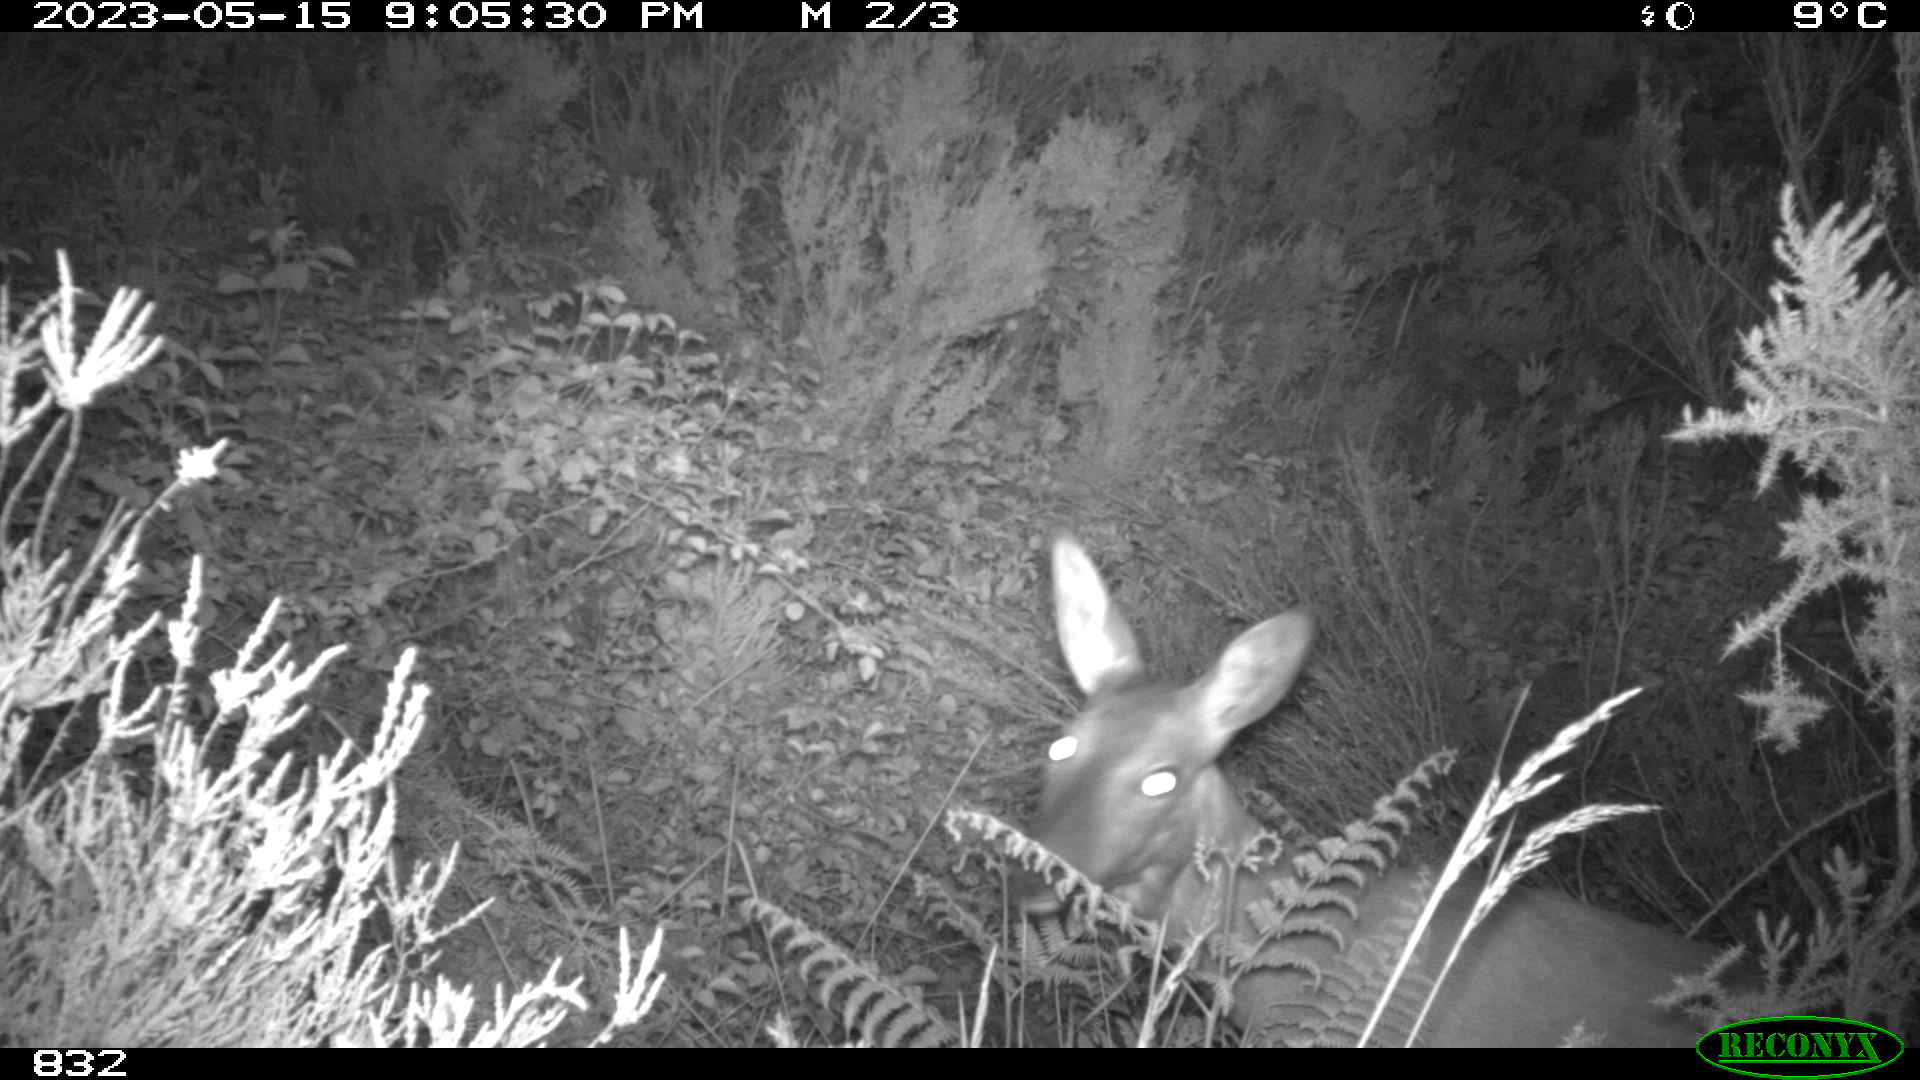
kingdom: Animalia
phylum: Chordata
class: Mammalia
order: Artiodactyla
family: Cervidae
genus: Capreolus
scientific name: Capreolus capreolus
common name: Western roe deer
